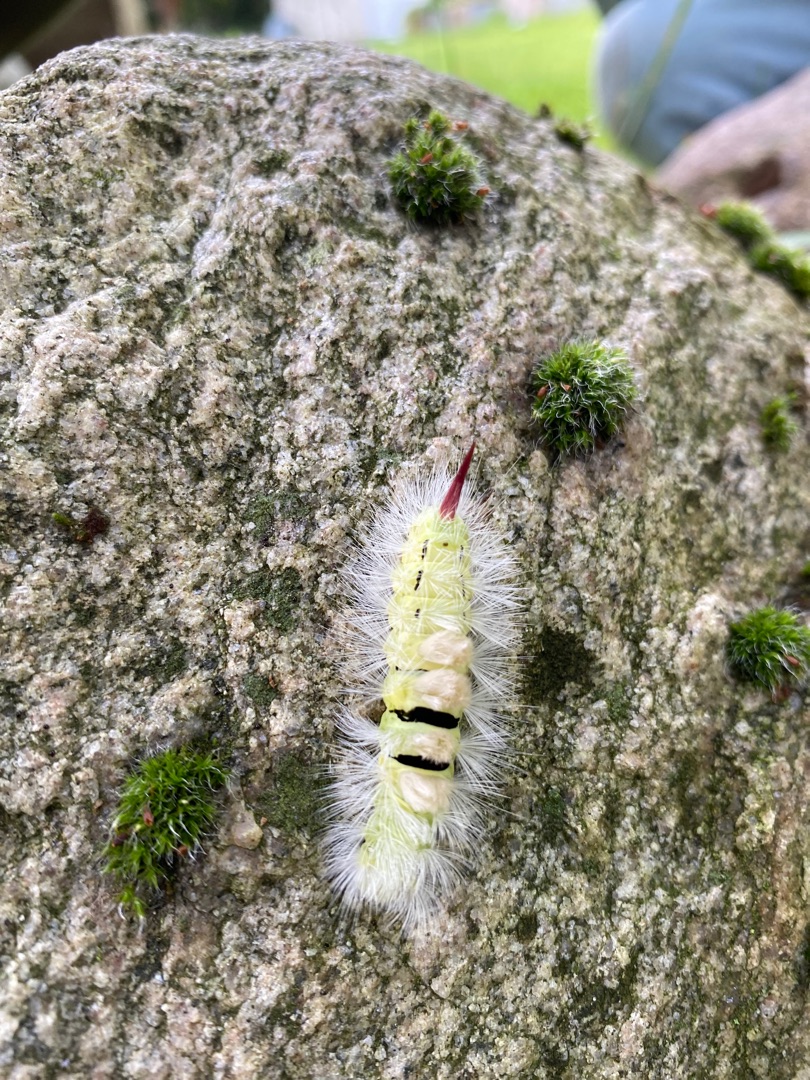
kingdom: Animalia
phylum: Arthropoda
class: Insecta
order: Lepidoptera
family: Erebidae
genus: Calliteara
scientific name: Calliteara pudibunda
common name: Bøgenonne
